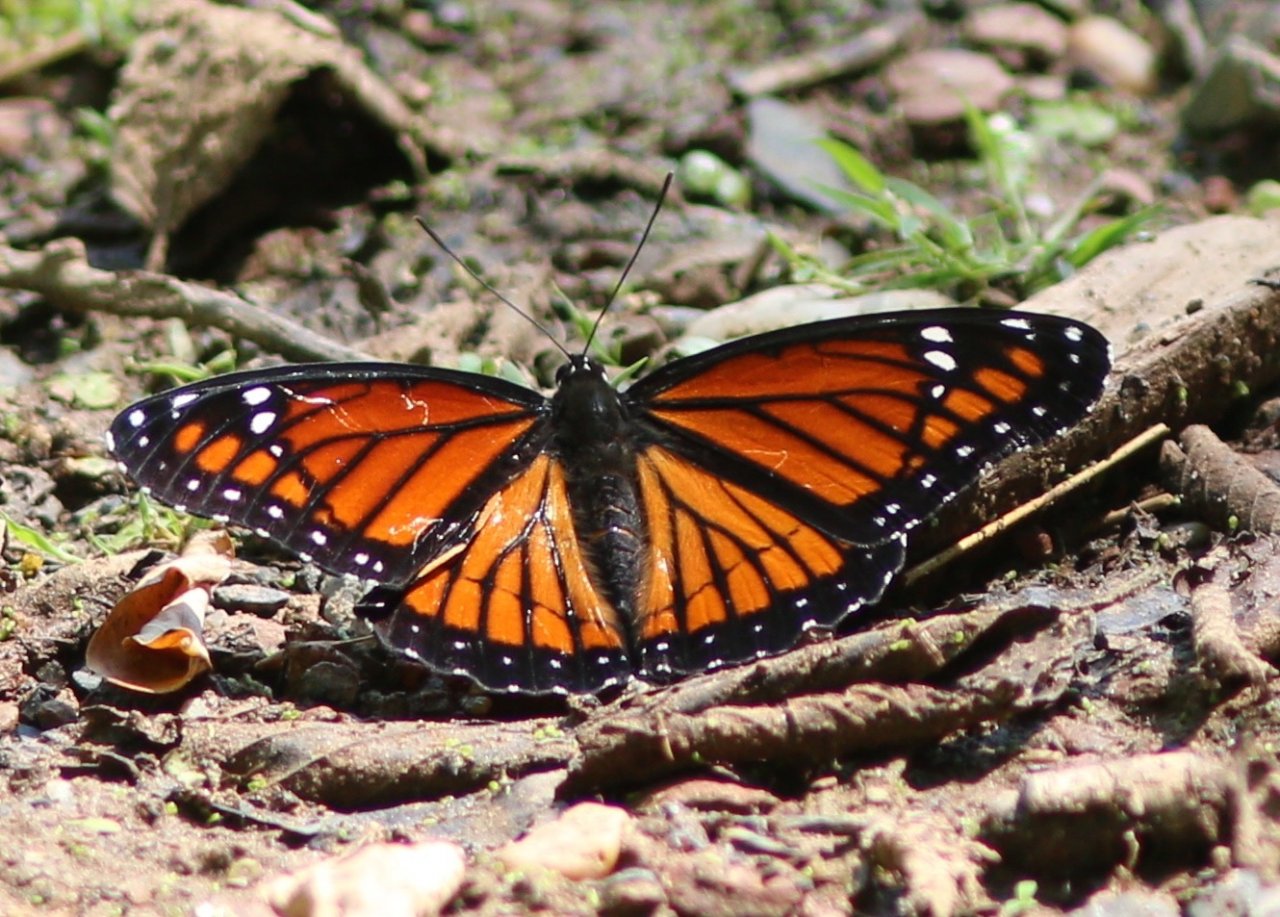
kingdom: Animalia
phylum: Arthropoda
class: Insecta
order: Lepidoptera
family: Nymphalidae
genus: Limenitis
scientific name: Limenitis archippus
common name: Viceroy
